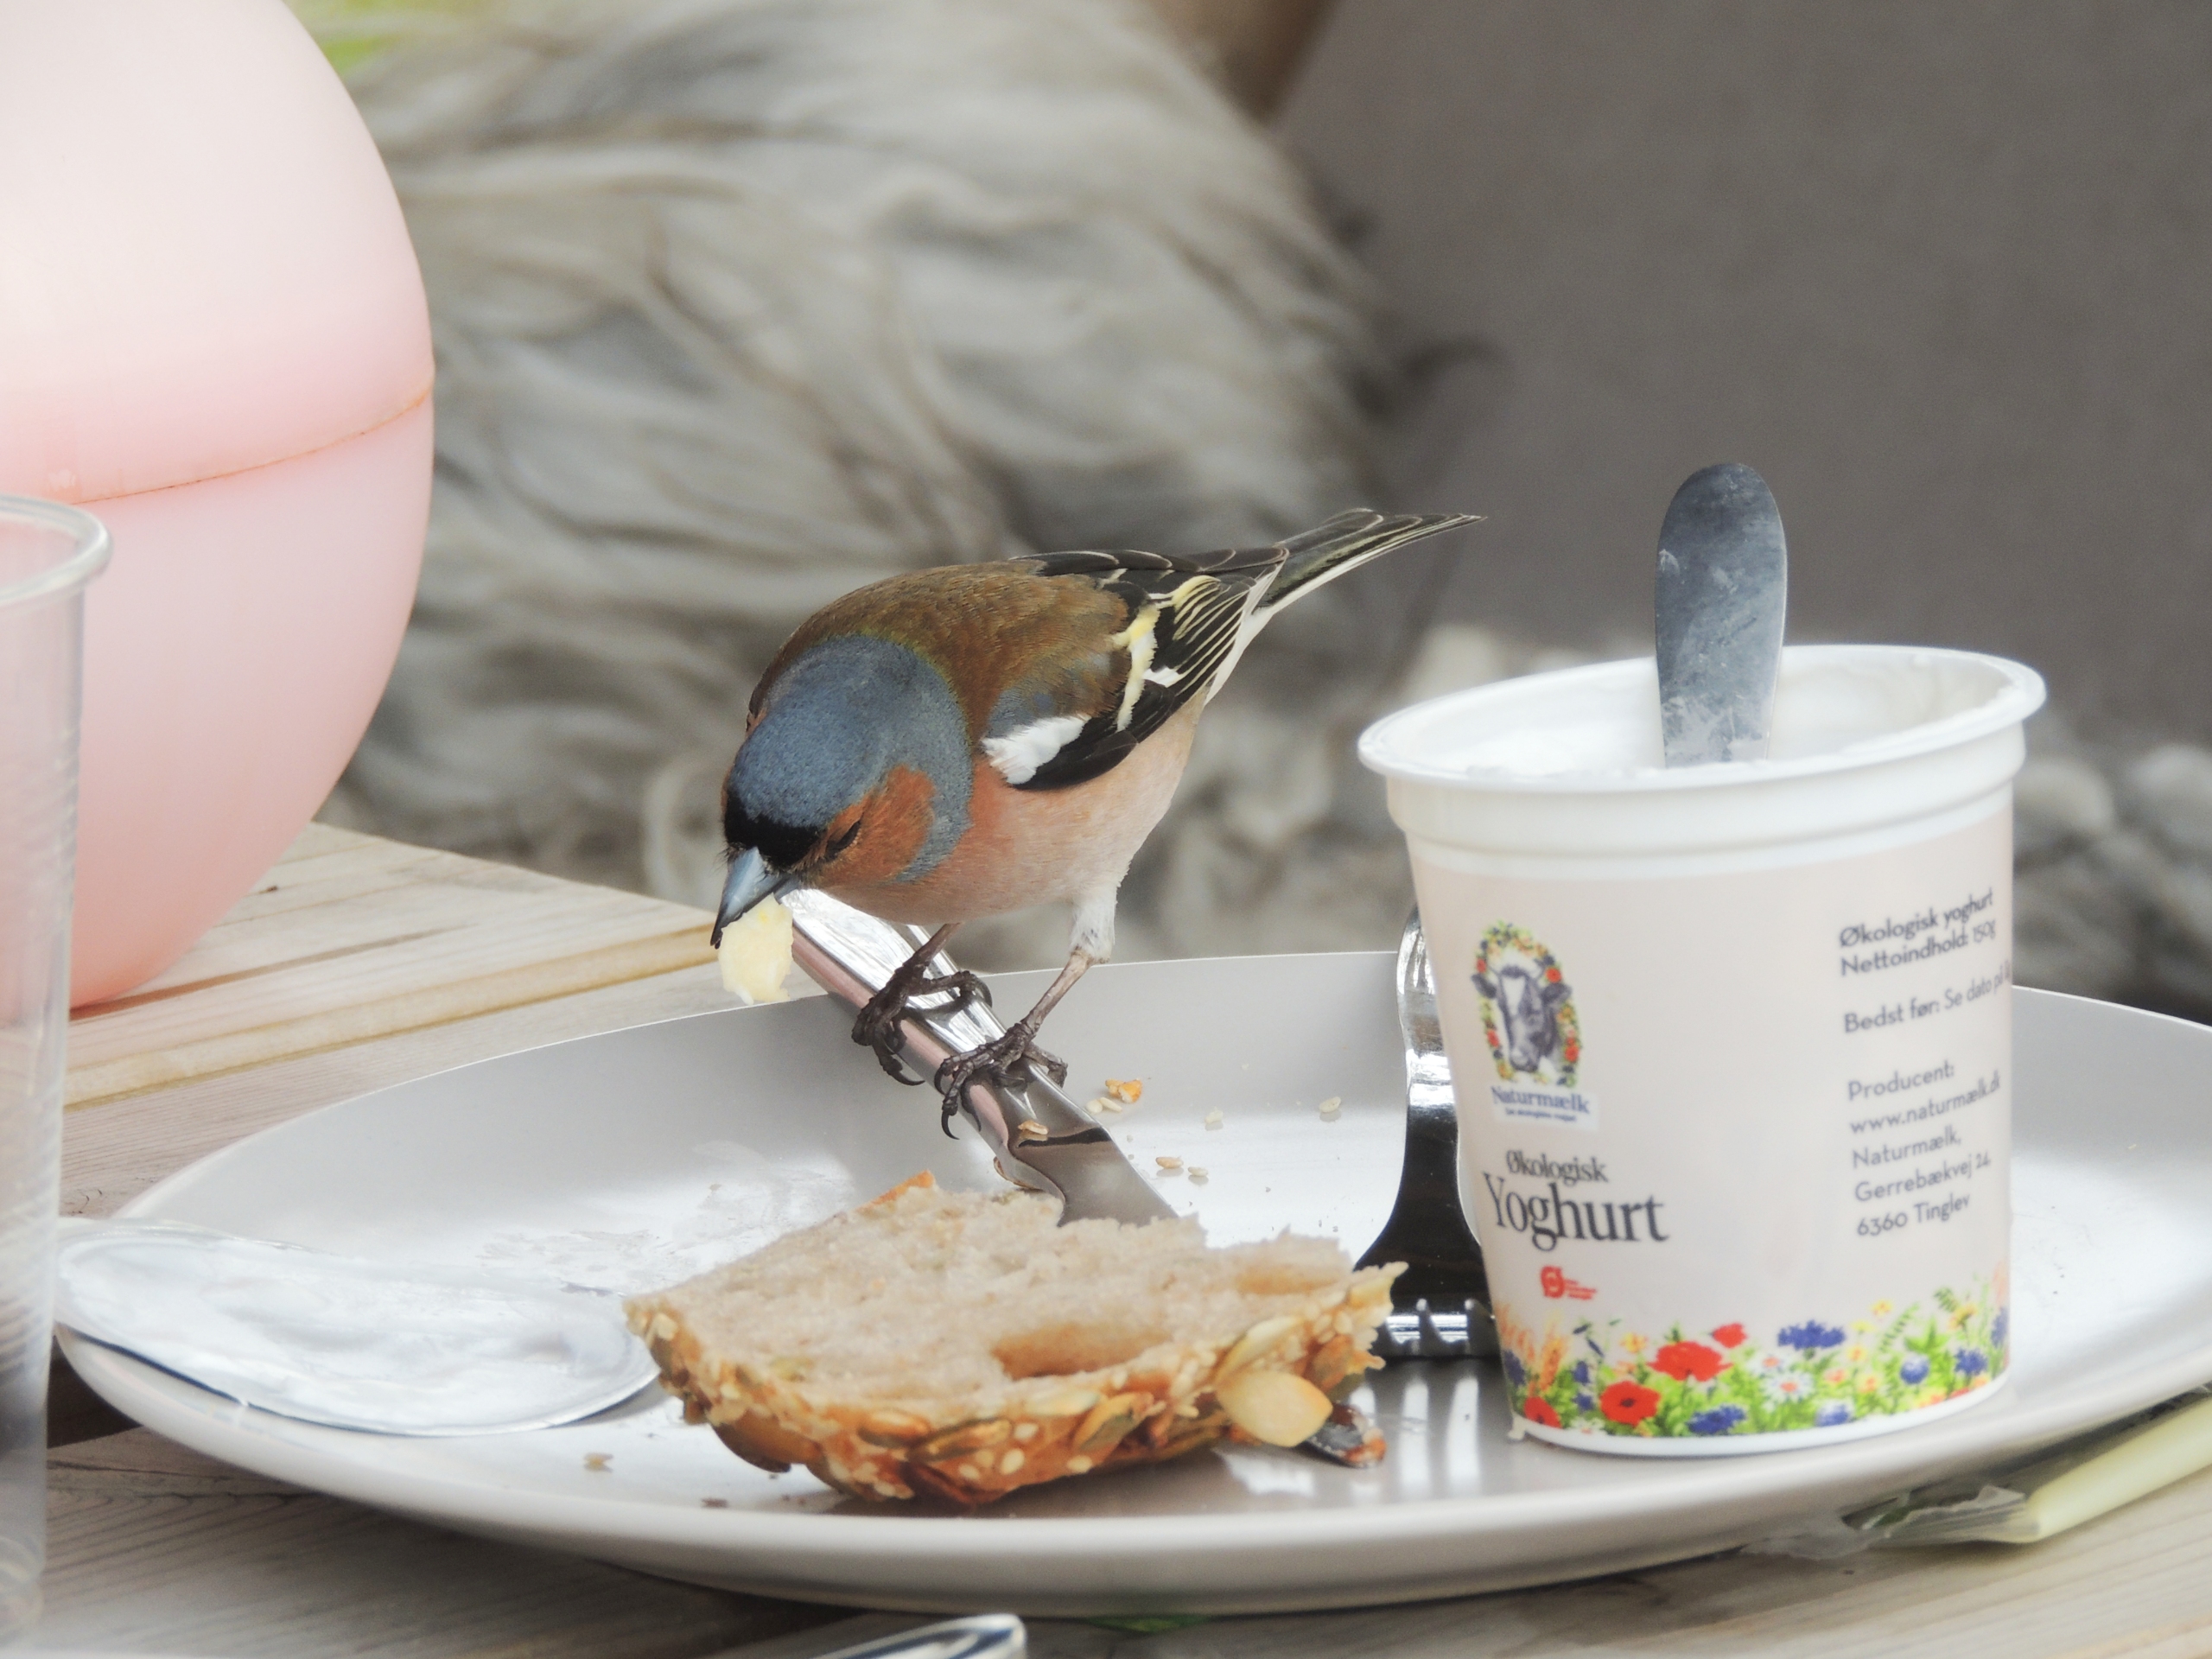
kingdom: Animalia
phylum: Chordata
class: Aves
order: Passeriformes
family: Fringillidae
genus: Fringilla
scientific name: Fringilla coelebs
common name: Bogfinke
